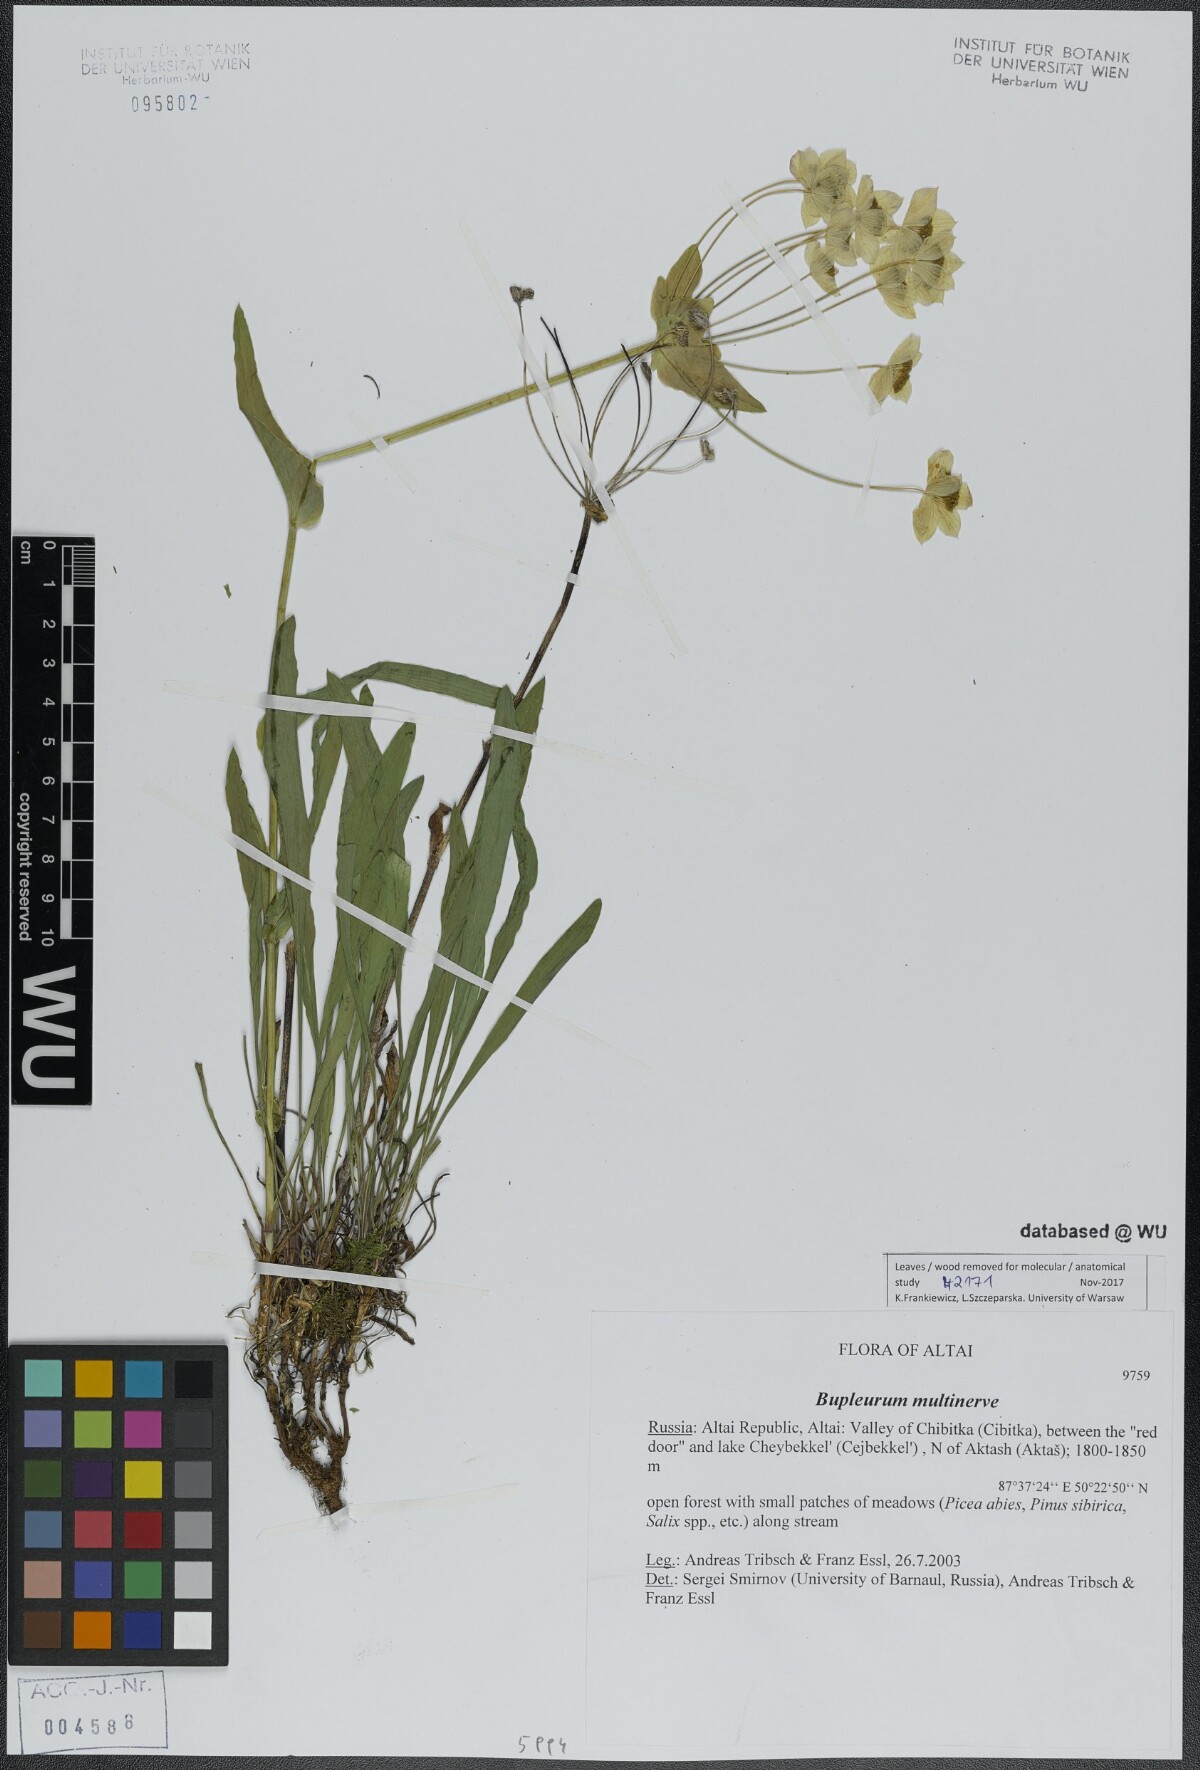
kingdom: Plantae
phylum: Tracheophyta
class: Magnoliopsida
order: Apiales
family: Apiaceae
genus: Bupleurum
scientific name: Bupleurum multinerve
